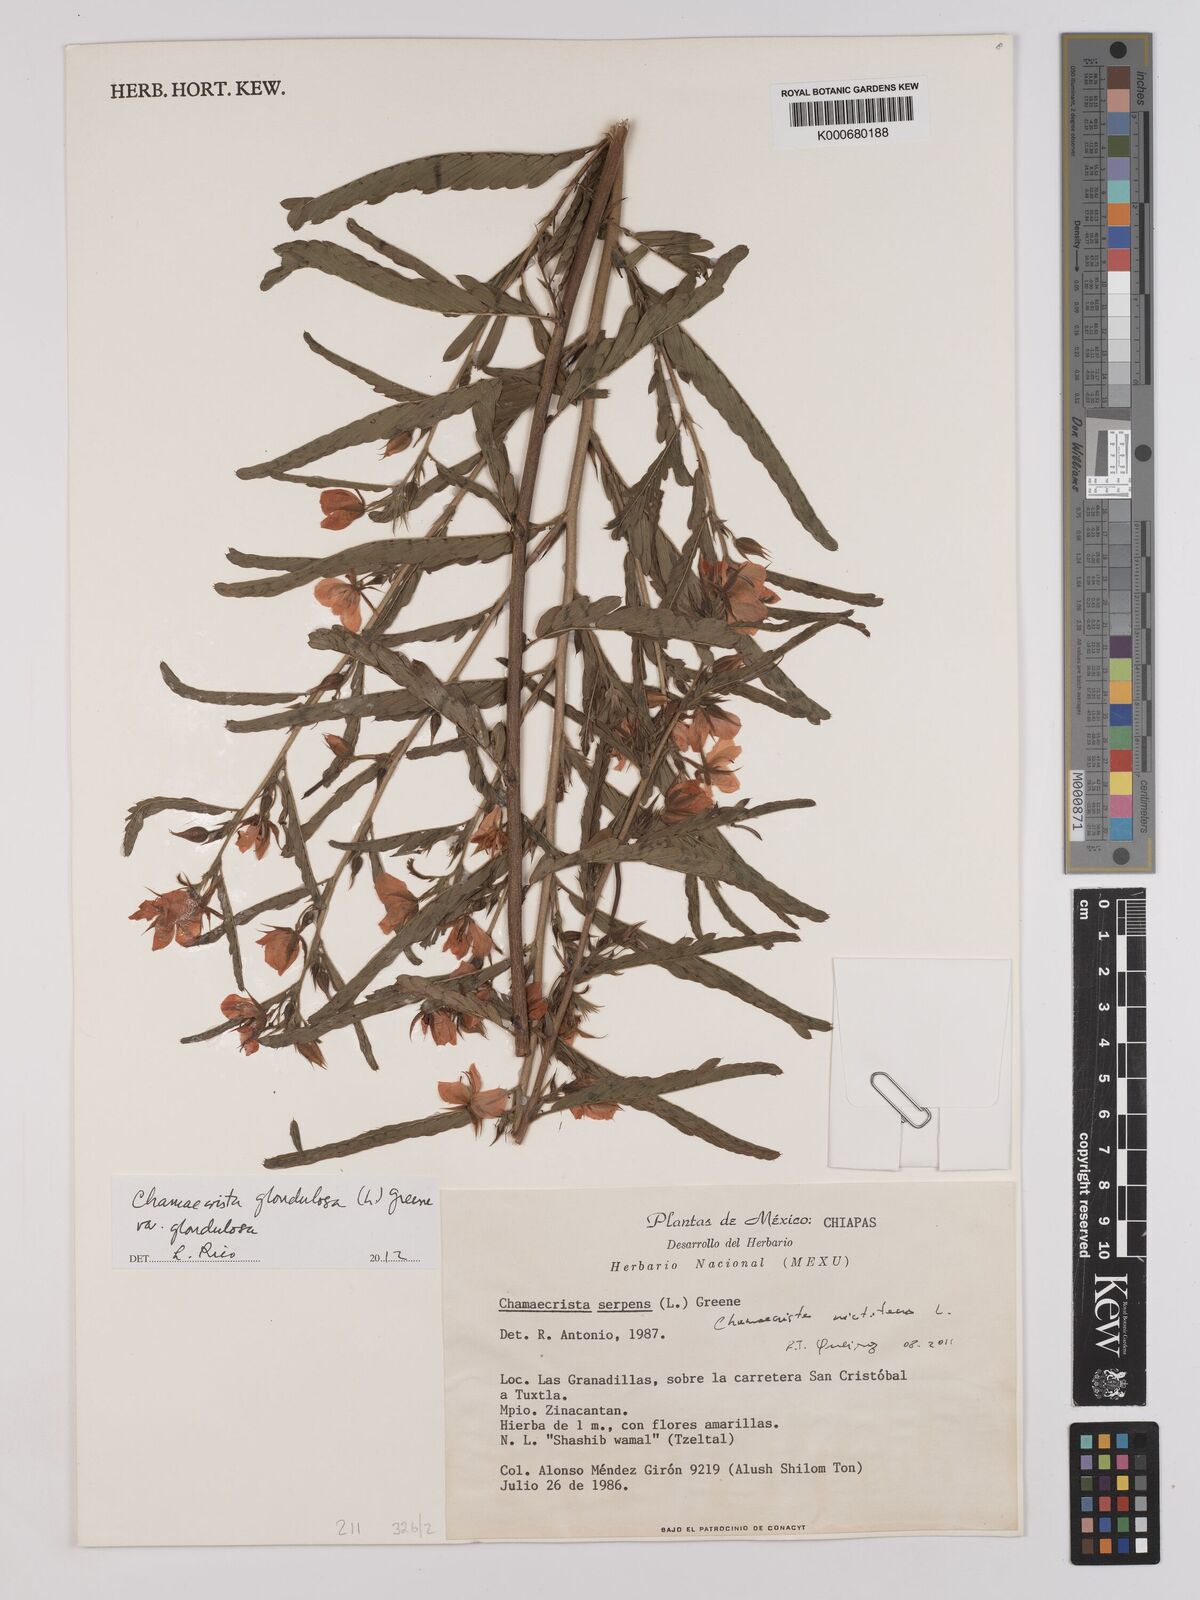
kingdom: Plantae
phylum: Tracheophyta
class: Magnoliopsida
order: Fabales
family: Fabaceae
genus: Chamaecrista
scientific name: Chamaecrista serpens
